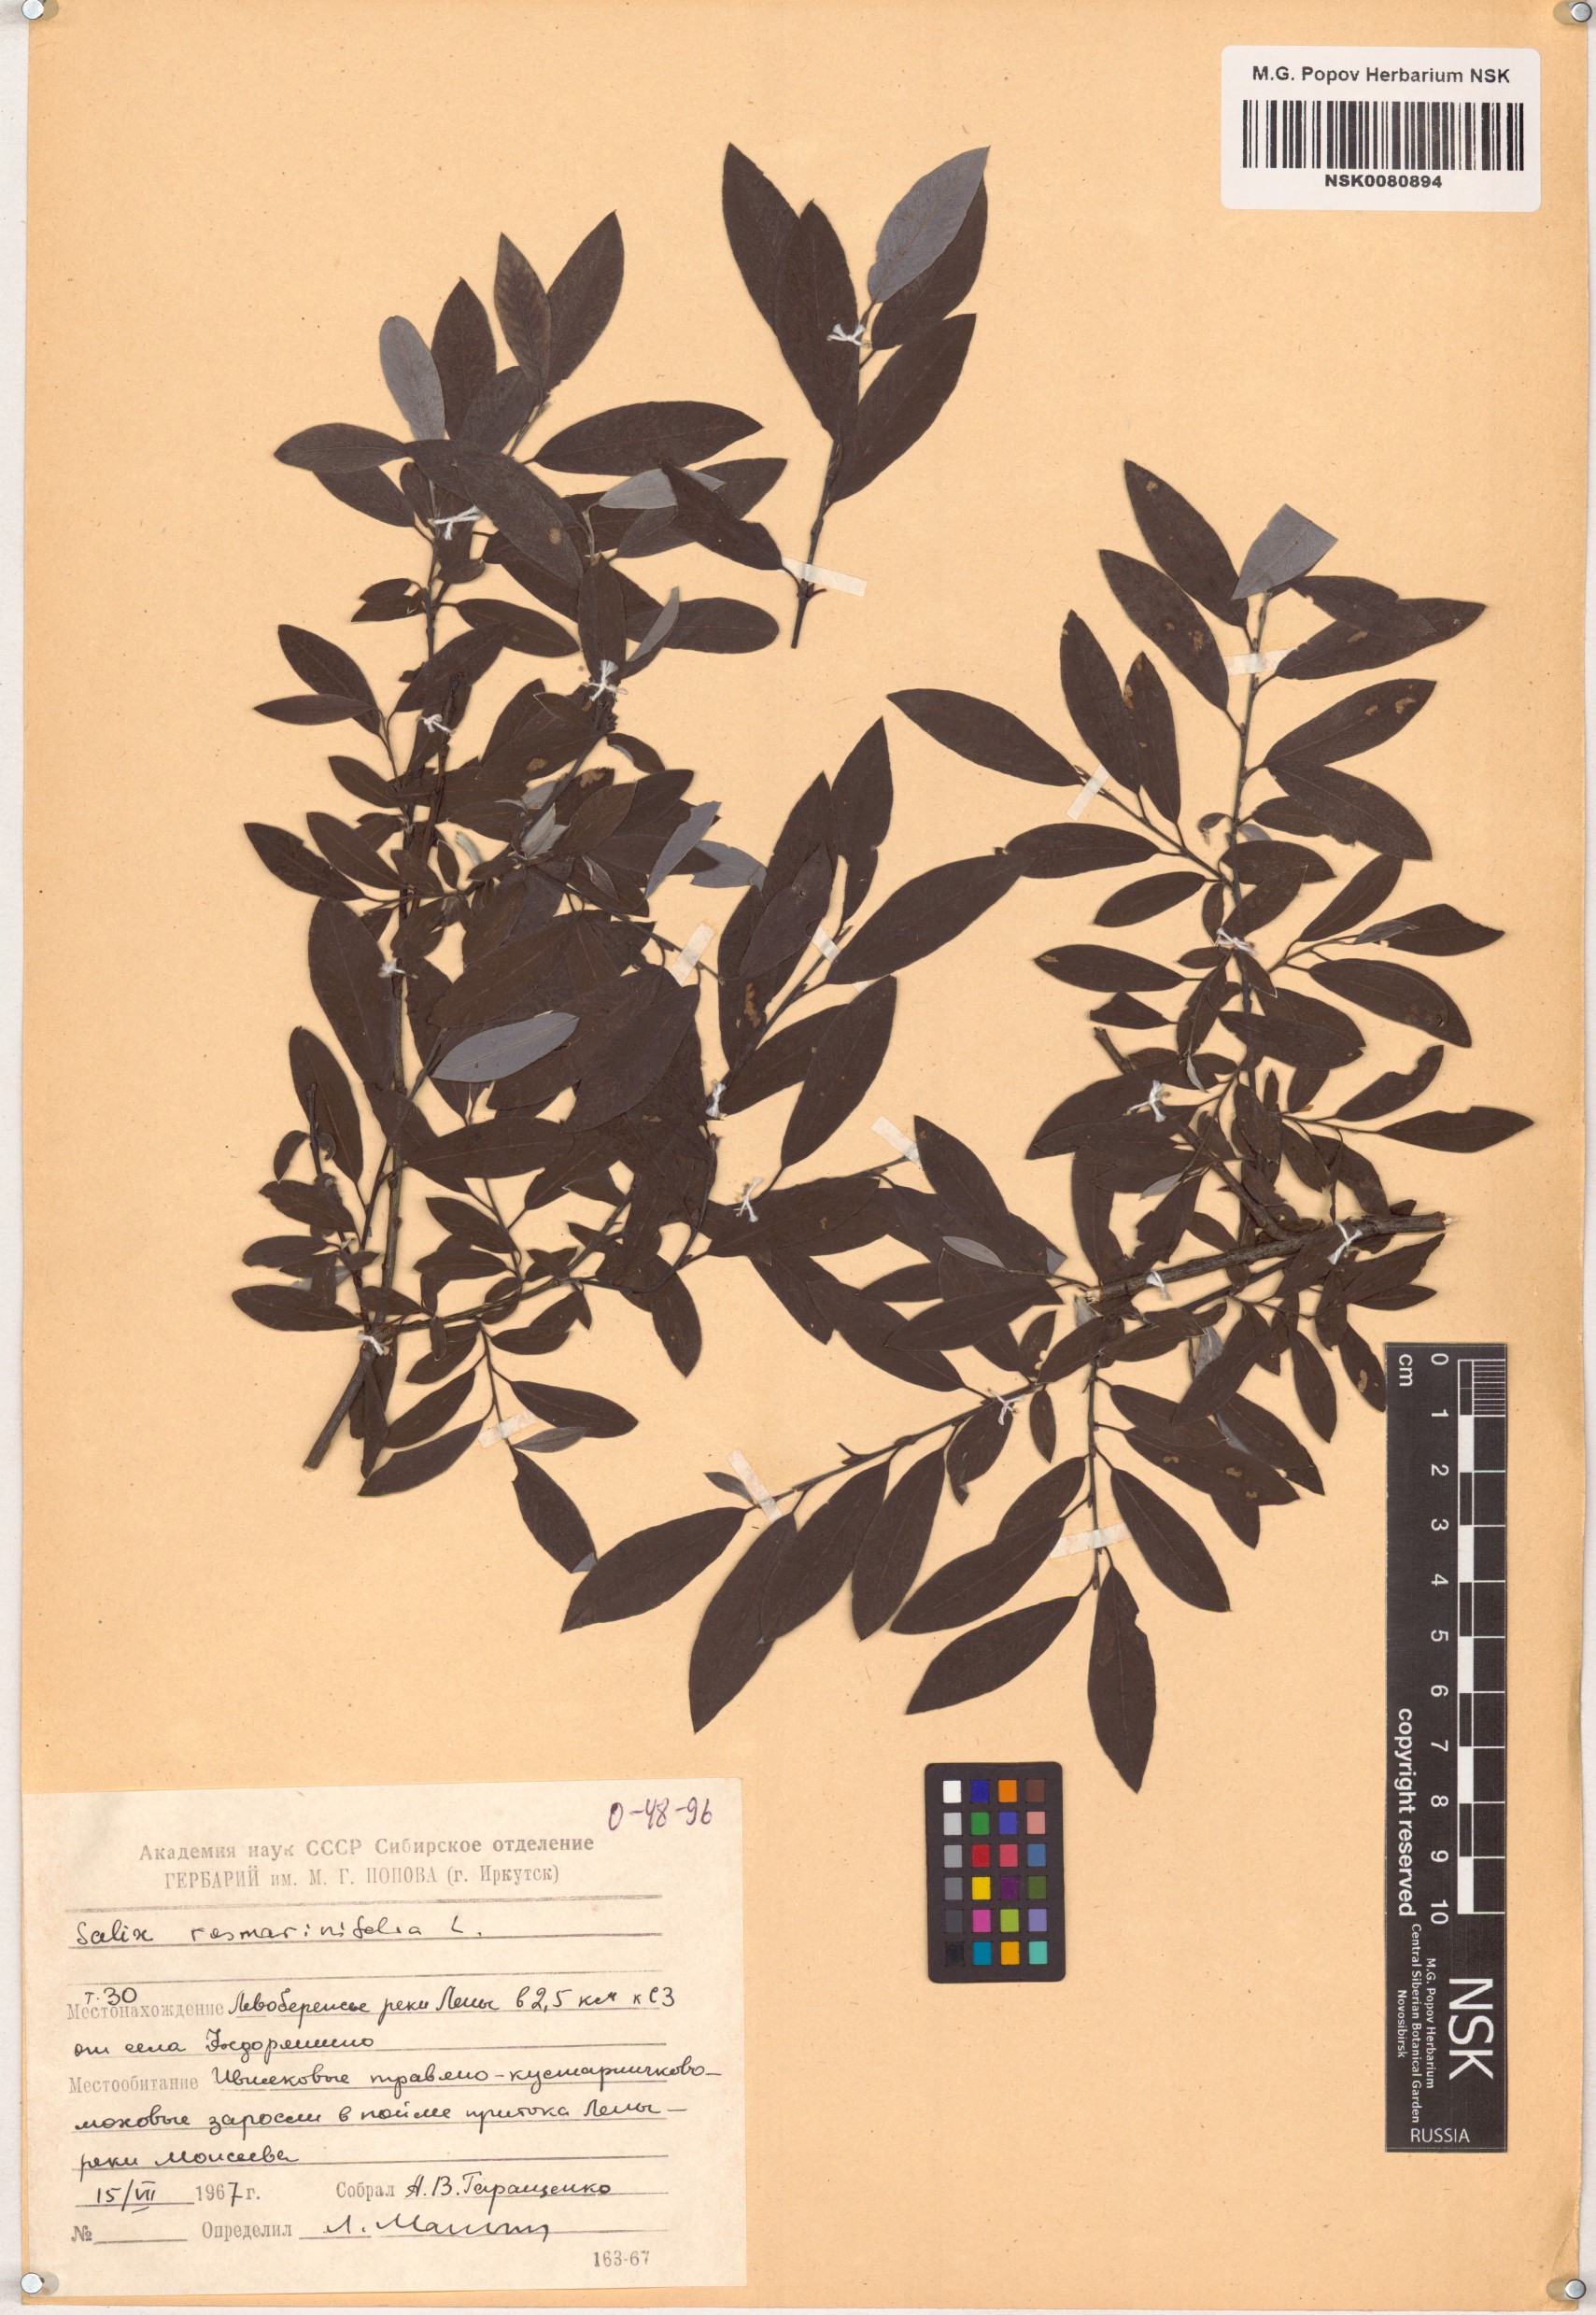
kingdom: Plantae
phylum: Tracheophyta
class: Magnoliopsida
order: Malpighiales
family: Salicaceae
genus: Salix
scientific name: Salix rosmarinifolia
